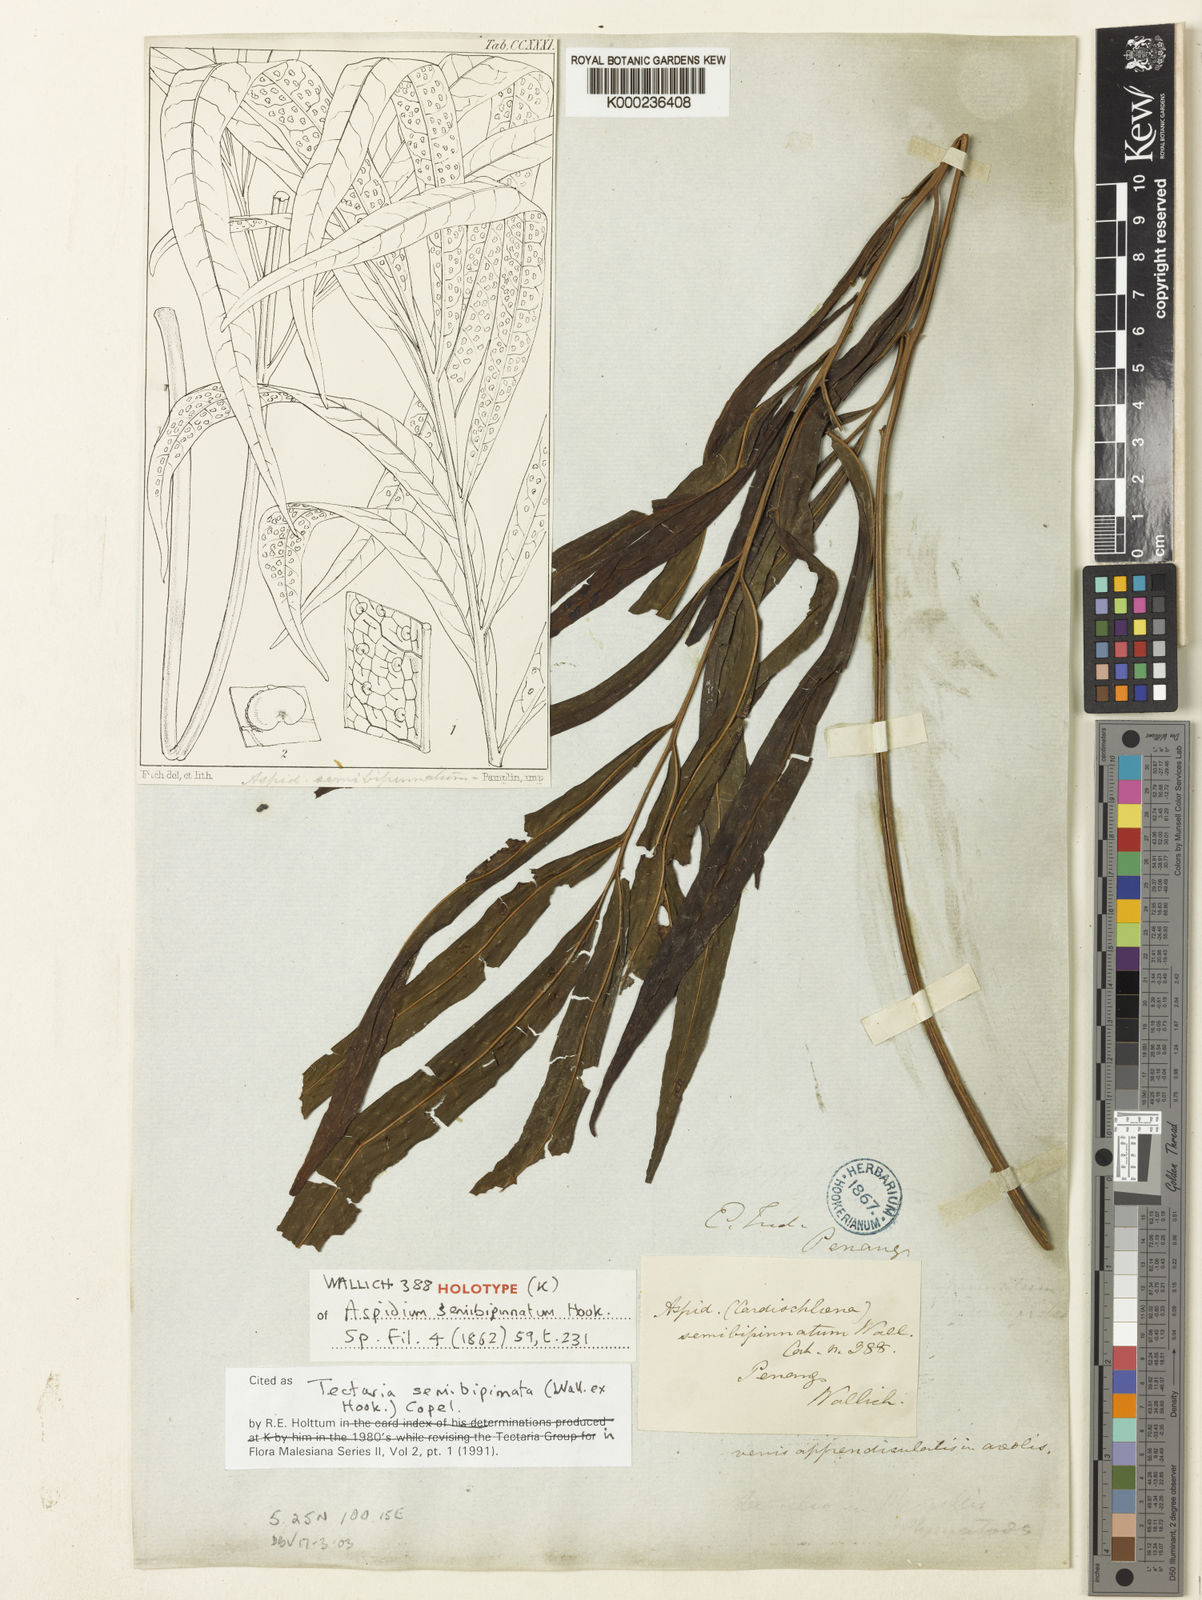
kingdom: Plantae
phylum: Tracheophyta
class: Polypodiopsida
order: Polypodiales
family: Tectariaceae
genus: Tectaria
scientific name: Tectaria semibipinnata
